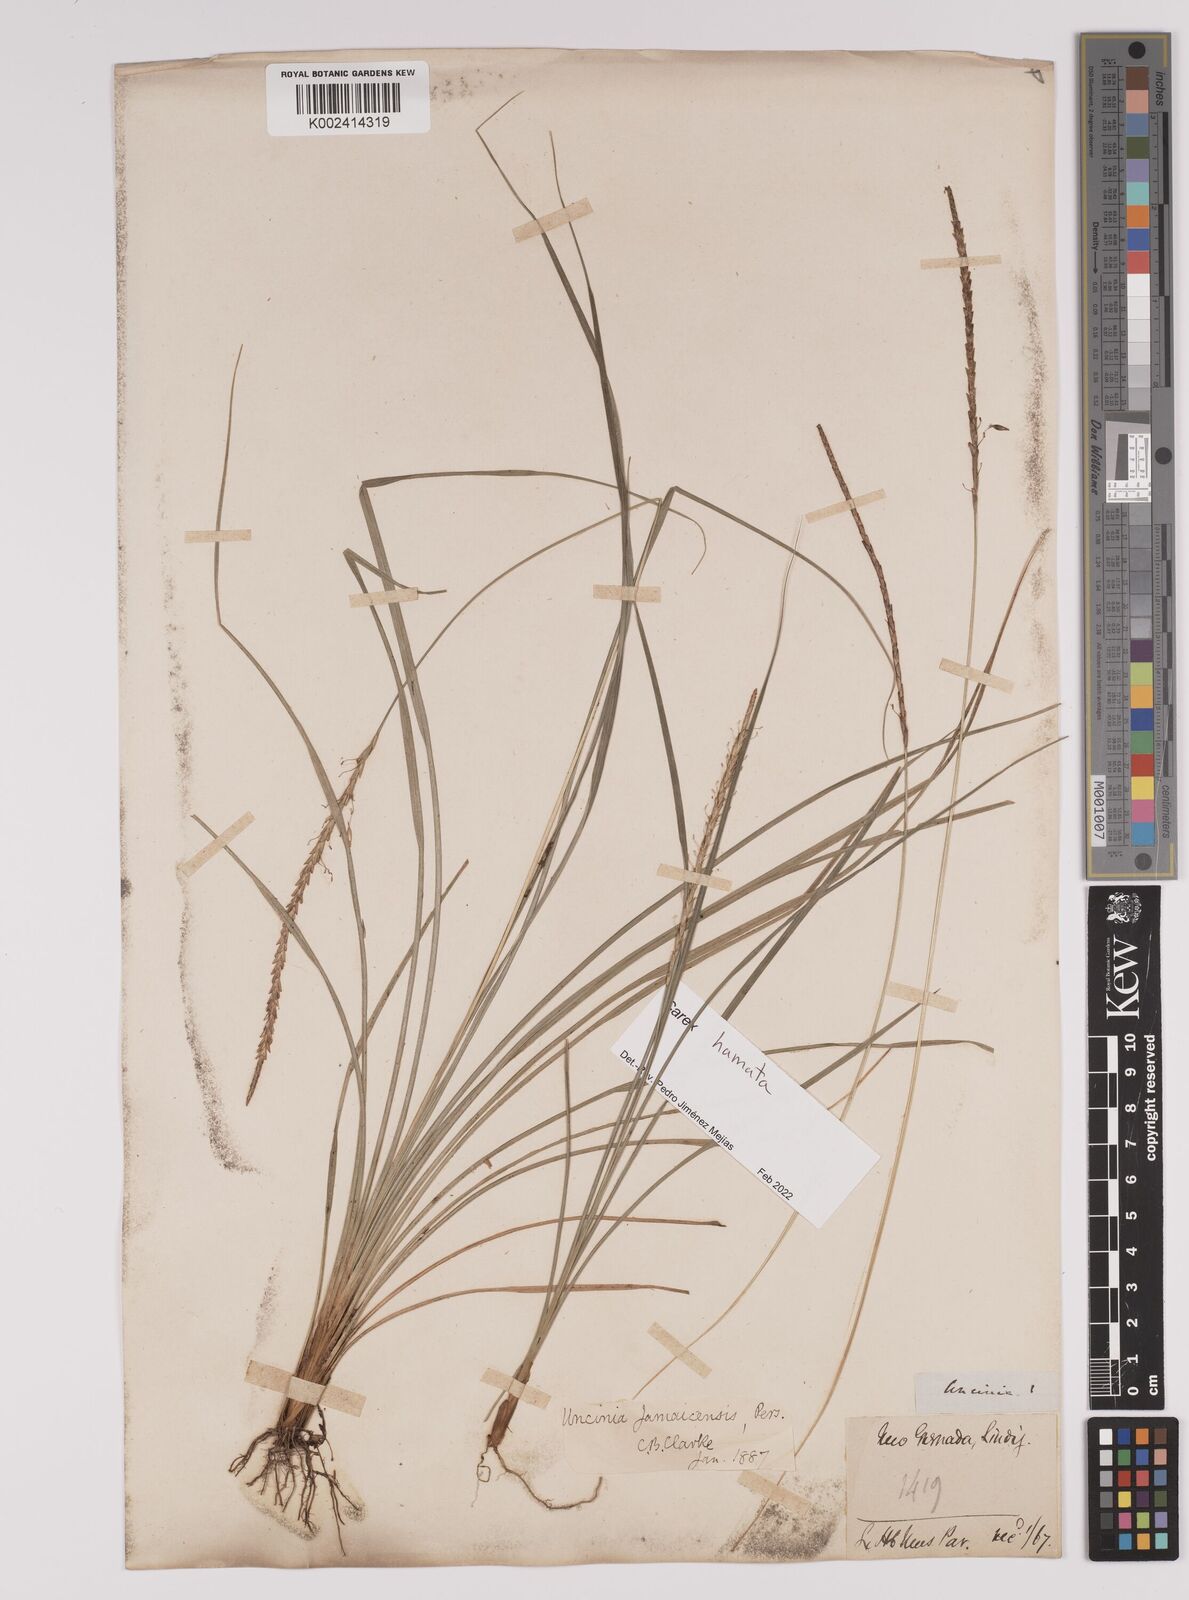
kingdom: Plantae
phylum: Tracheophyta
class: Liliopsida
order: Poales
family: Cyperaceae
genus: Carex
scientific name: Carex hamata
